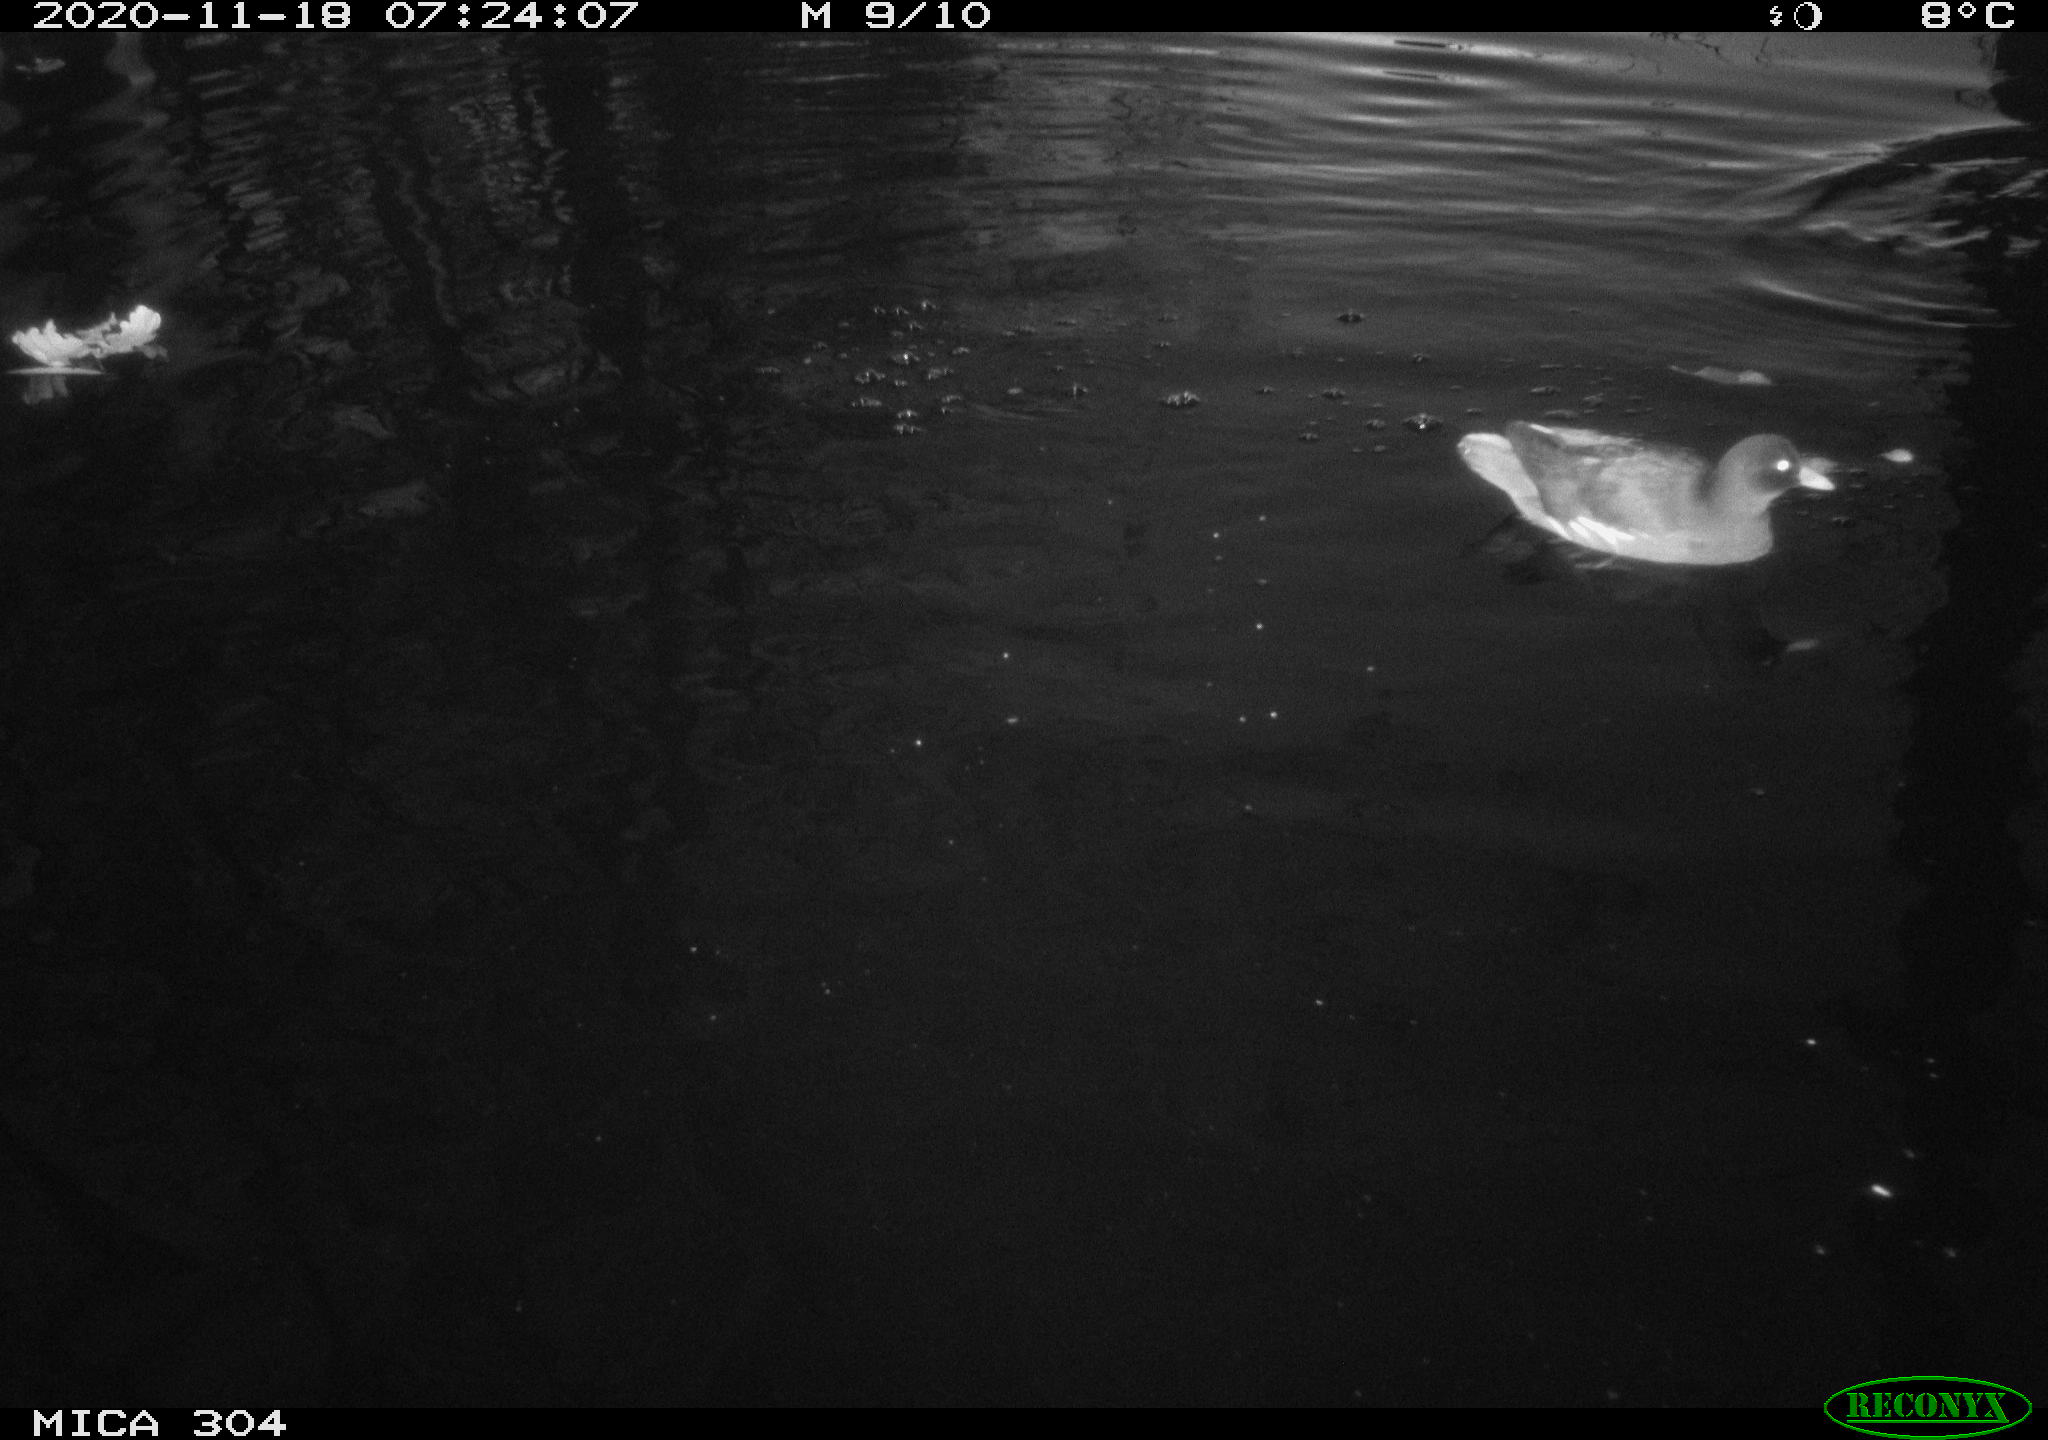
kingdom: Animalia
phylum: Chordata
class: Aves
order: Gruiformes
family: Rallidae
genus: Gallinula
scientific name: Gallinula chloropus
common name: Common moorhen
